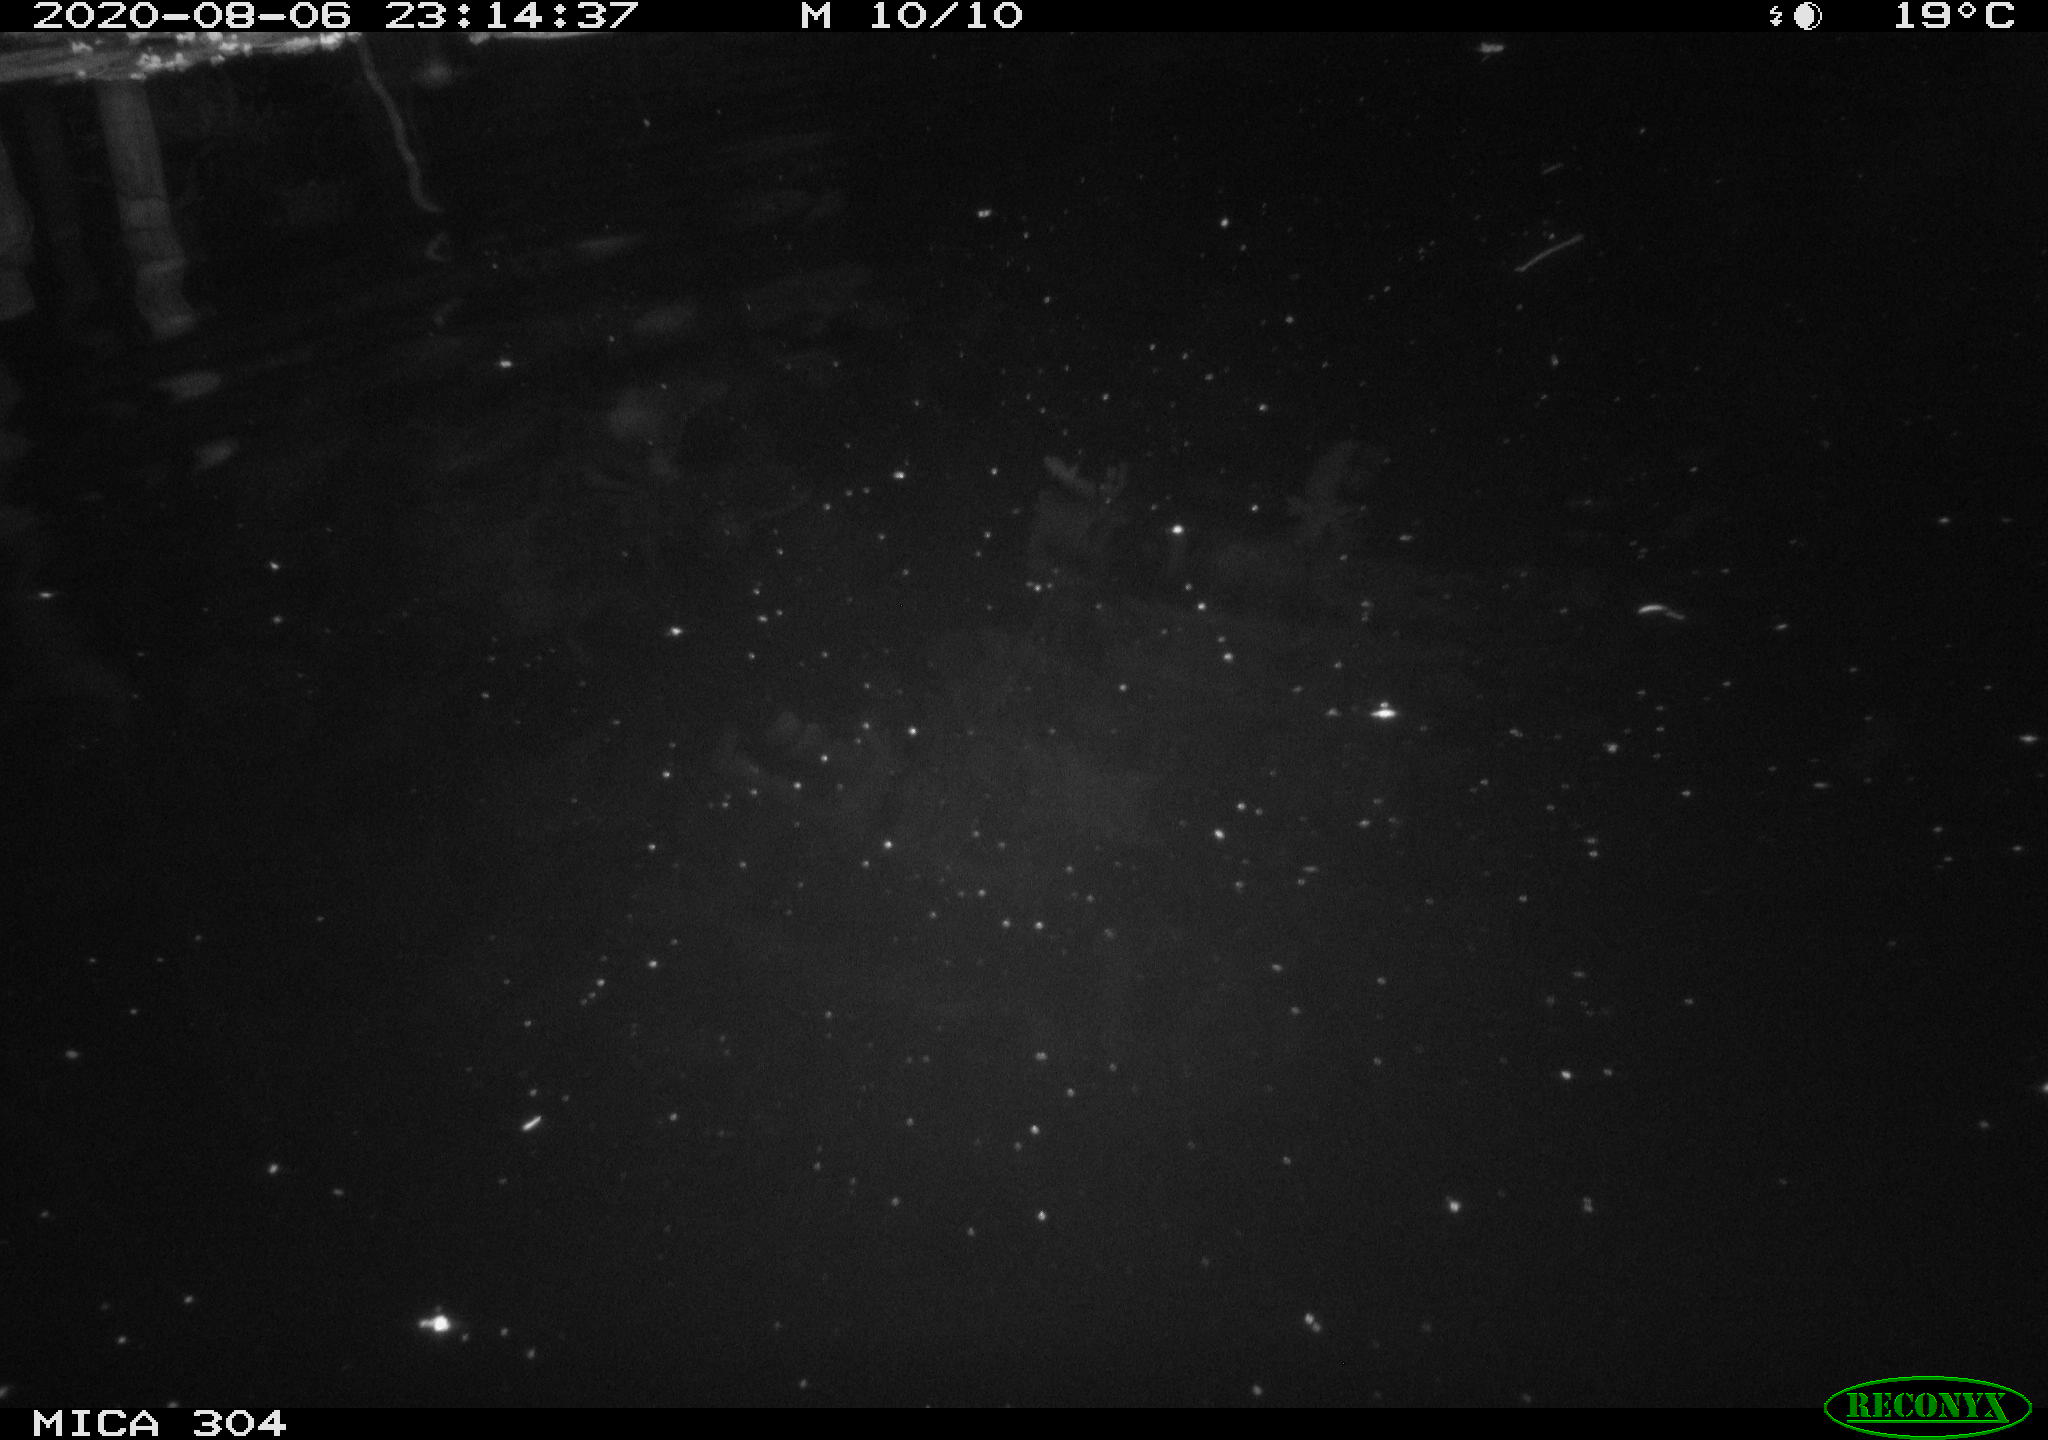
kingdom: Animalia
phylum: Chordata
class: Mammalia
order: Rodentia
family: Cricetidae
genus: Ondatra
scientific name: Ondatra zibethicus
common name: Muskrat
